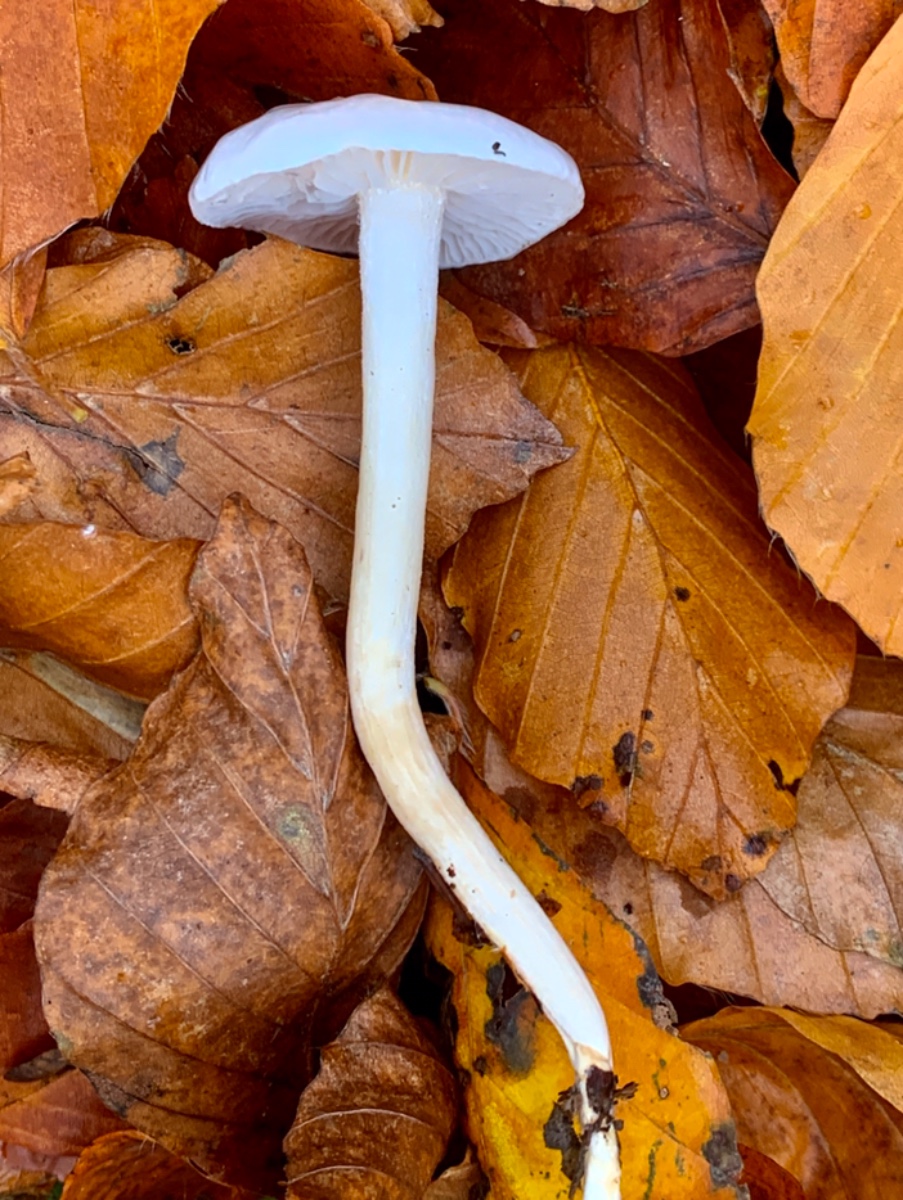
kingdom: Fungi
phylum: Basidiomycota
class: Agaricomycetes
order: Agaricales
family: Hygrophoraceae
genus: Hygrophorus
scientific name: Hygrophorus eburneus
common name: elfenbens-sneglehat
